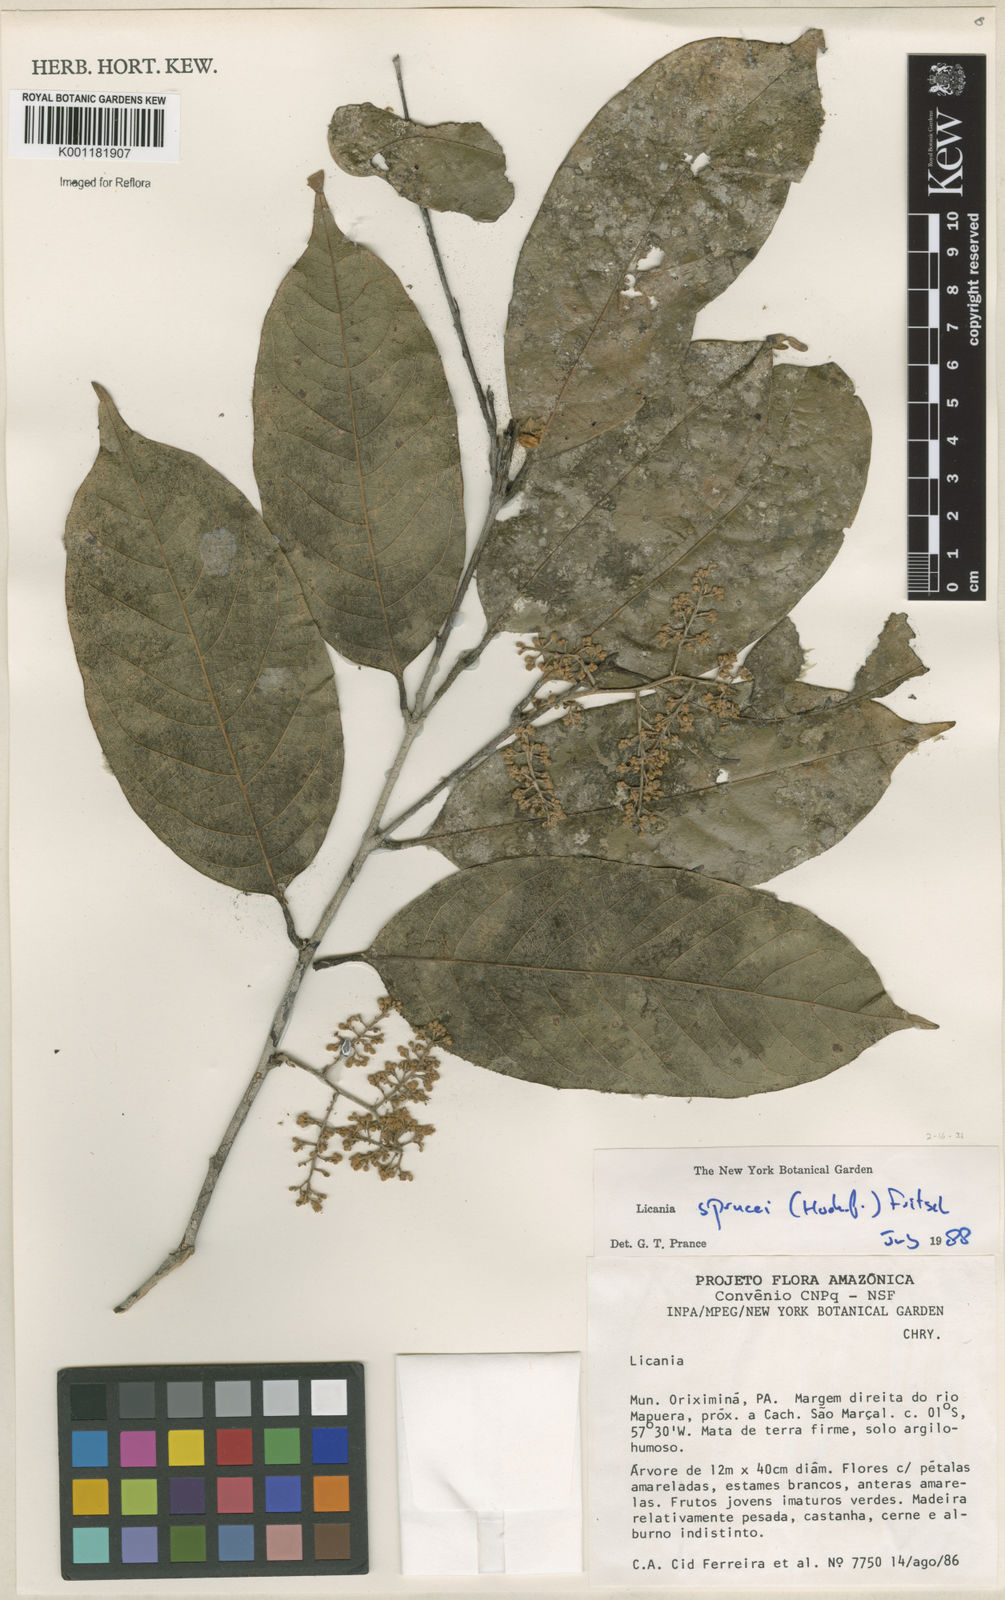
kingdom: Plantae
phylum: Tracheophyta
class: Magnoliopsida
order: Malpighiales
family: Chrysobalanaceae
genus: Leptobalanus
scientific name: Leptobalanus sprucei
